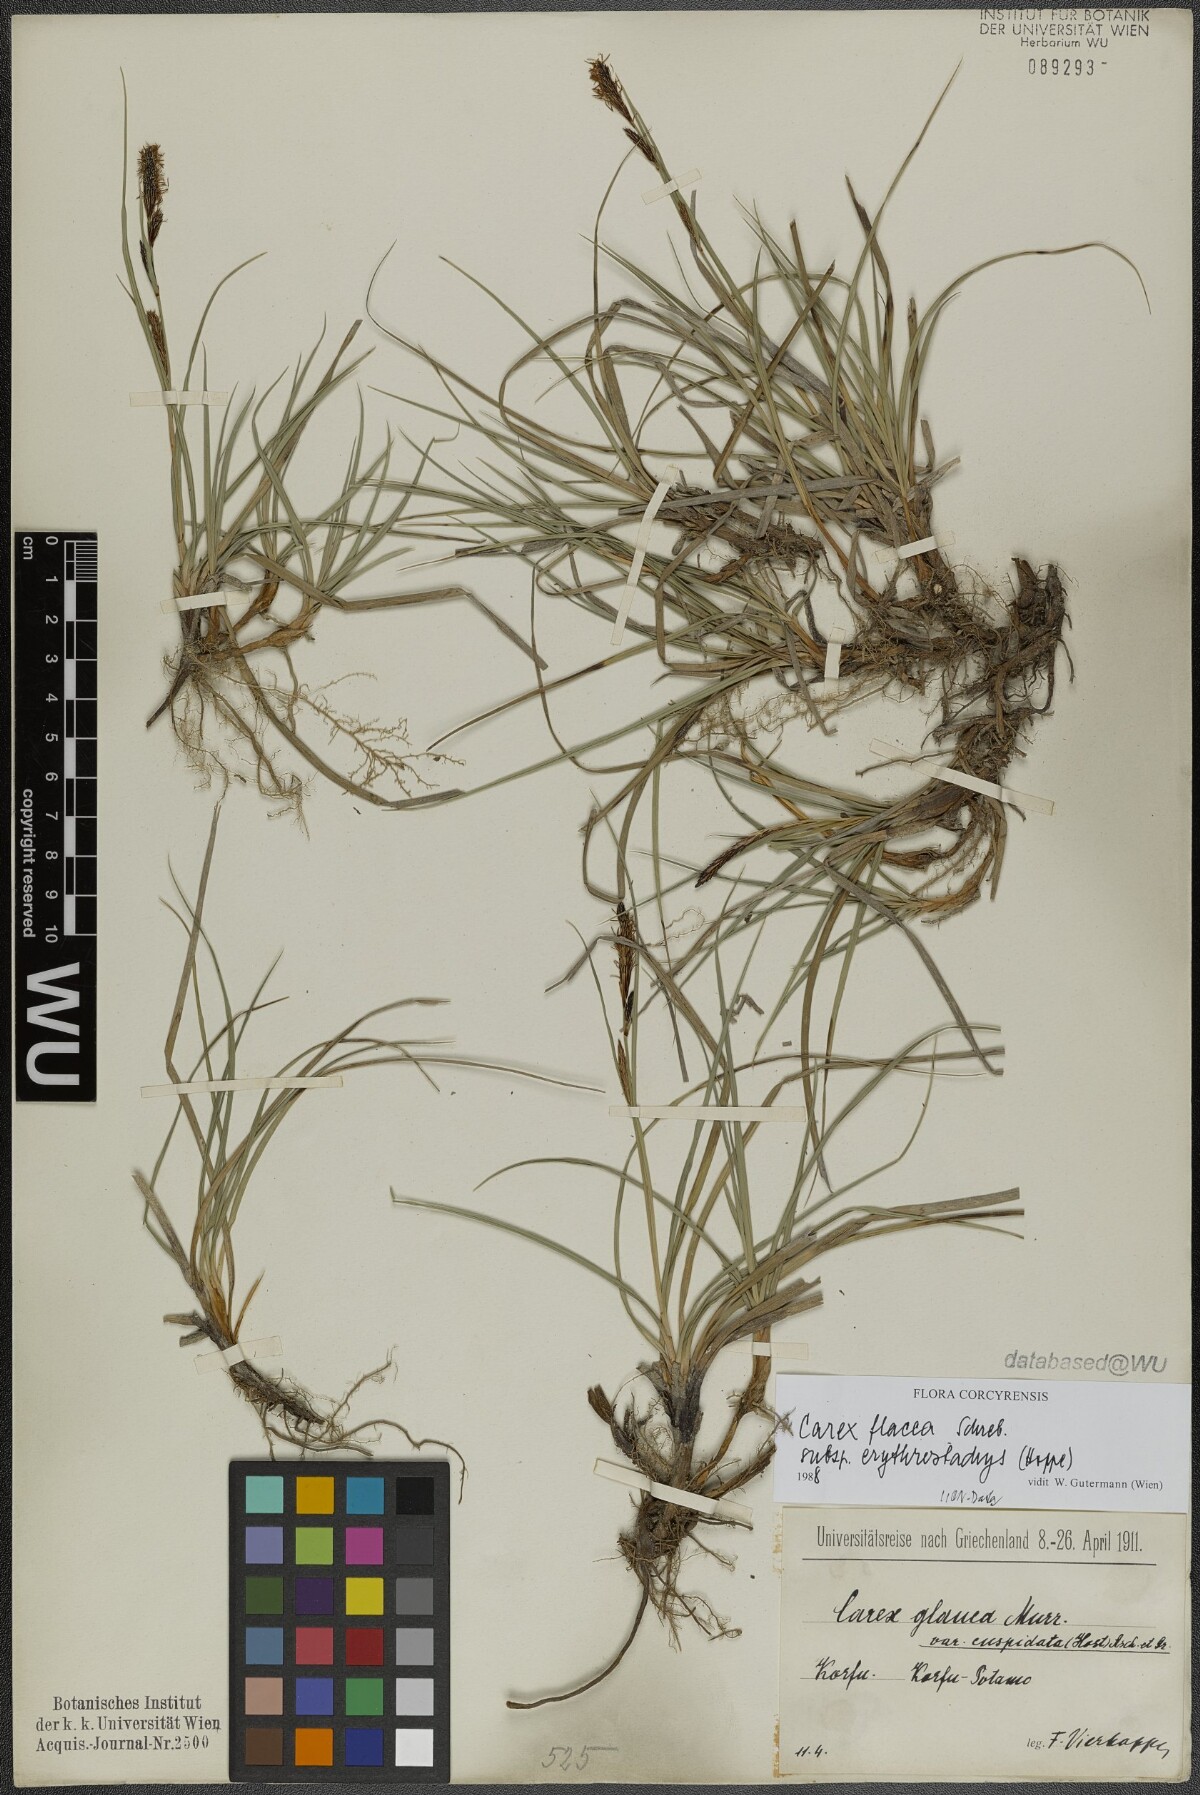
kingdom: Plantae
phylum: Tracheophyta
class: Liliopsida
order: Poales
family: Cyperaceae
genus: Carex
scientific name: Carex flacca
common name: Glaucous sedge
